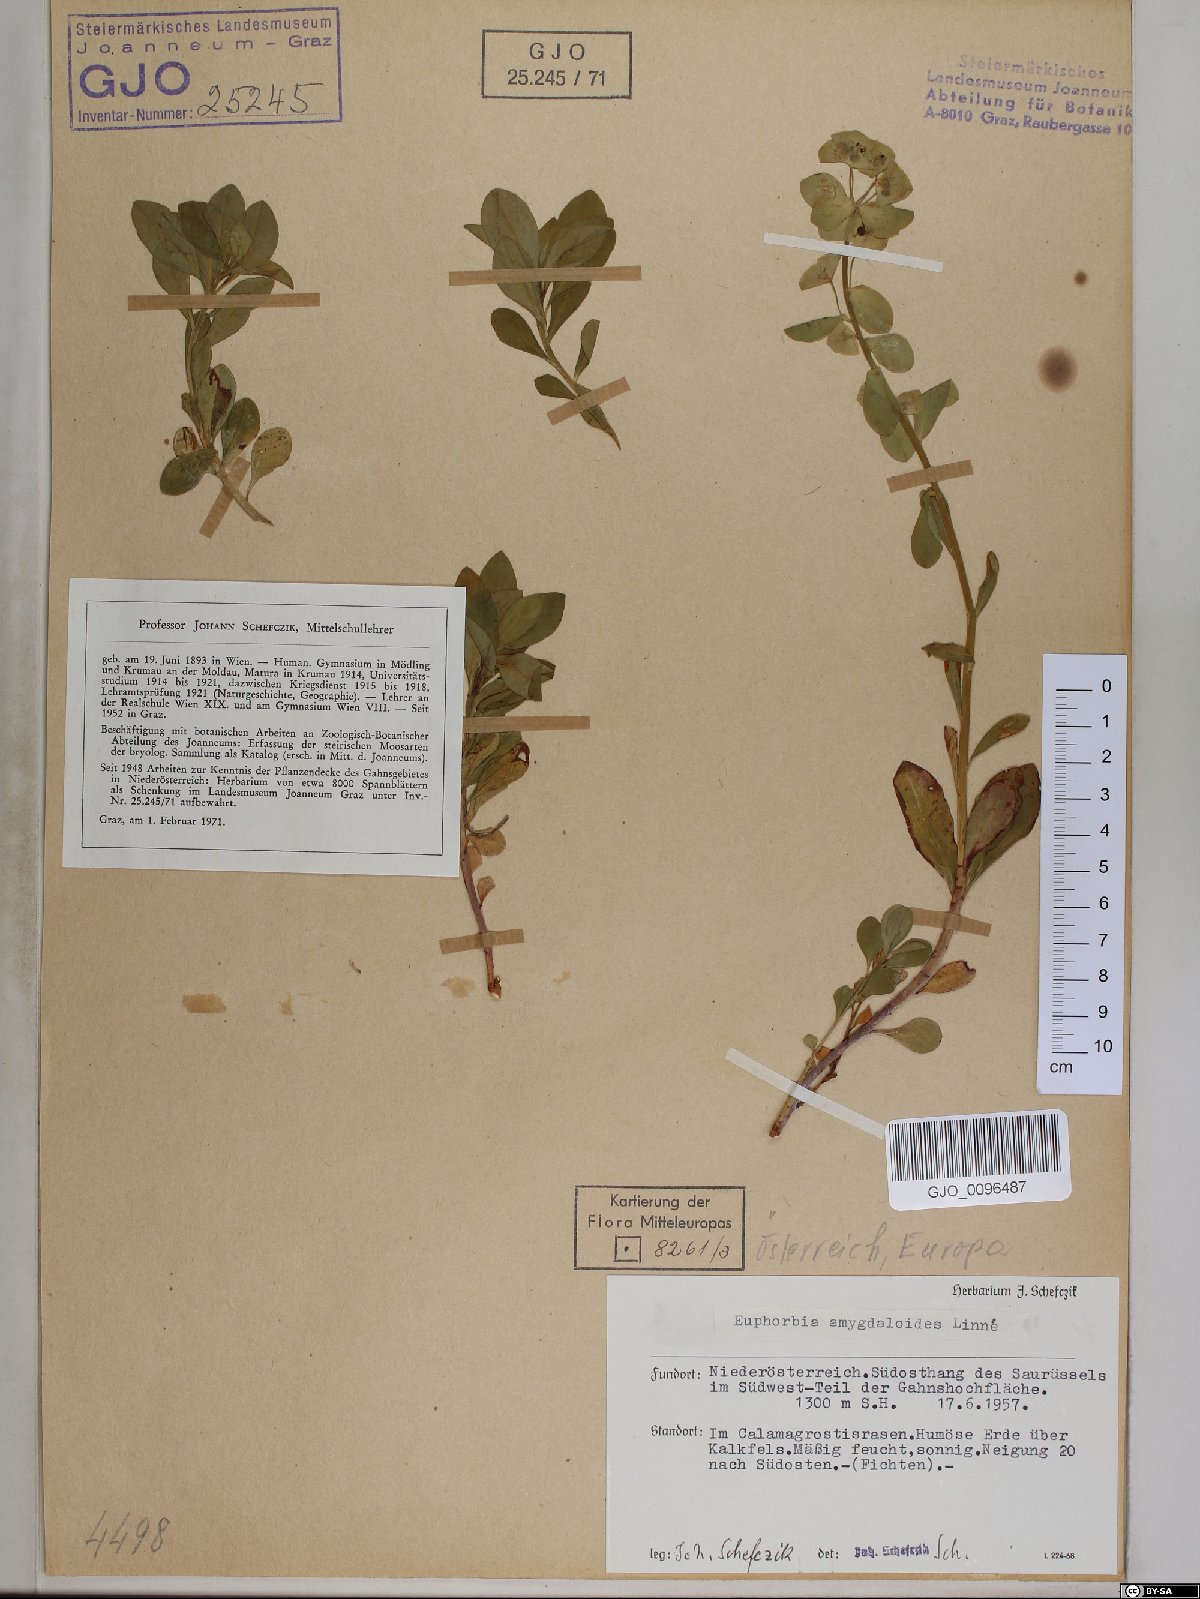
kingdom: Plantae
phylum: Tracheophyta
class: Magnoliopsida
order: Malpighiales
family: Euphorbiaceae
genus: Euphorbia
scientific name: Euphorbia amygdaloides
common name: Wood spurge
